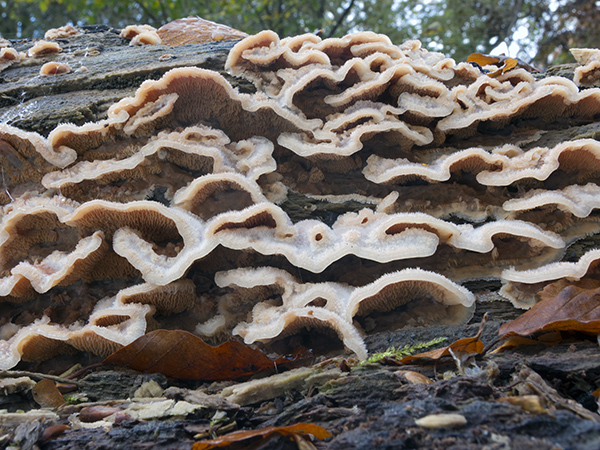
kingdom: Fungi
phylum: Basidiomycota
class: Agaricomycetes
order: Polyporales
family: Meruliaceae
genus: Phlebia
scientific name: Phlebia tremellosa
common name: bævrende åresvamp
